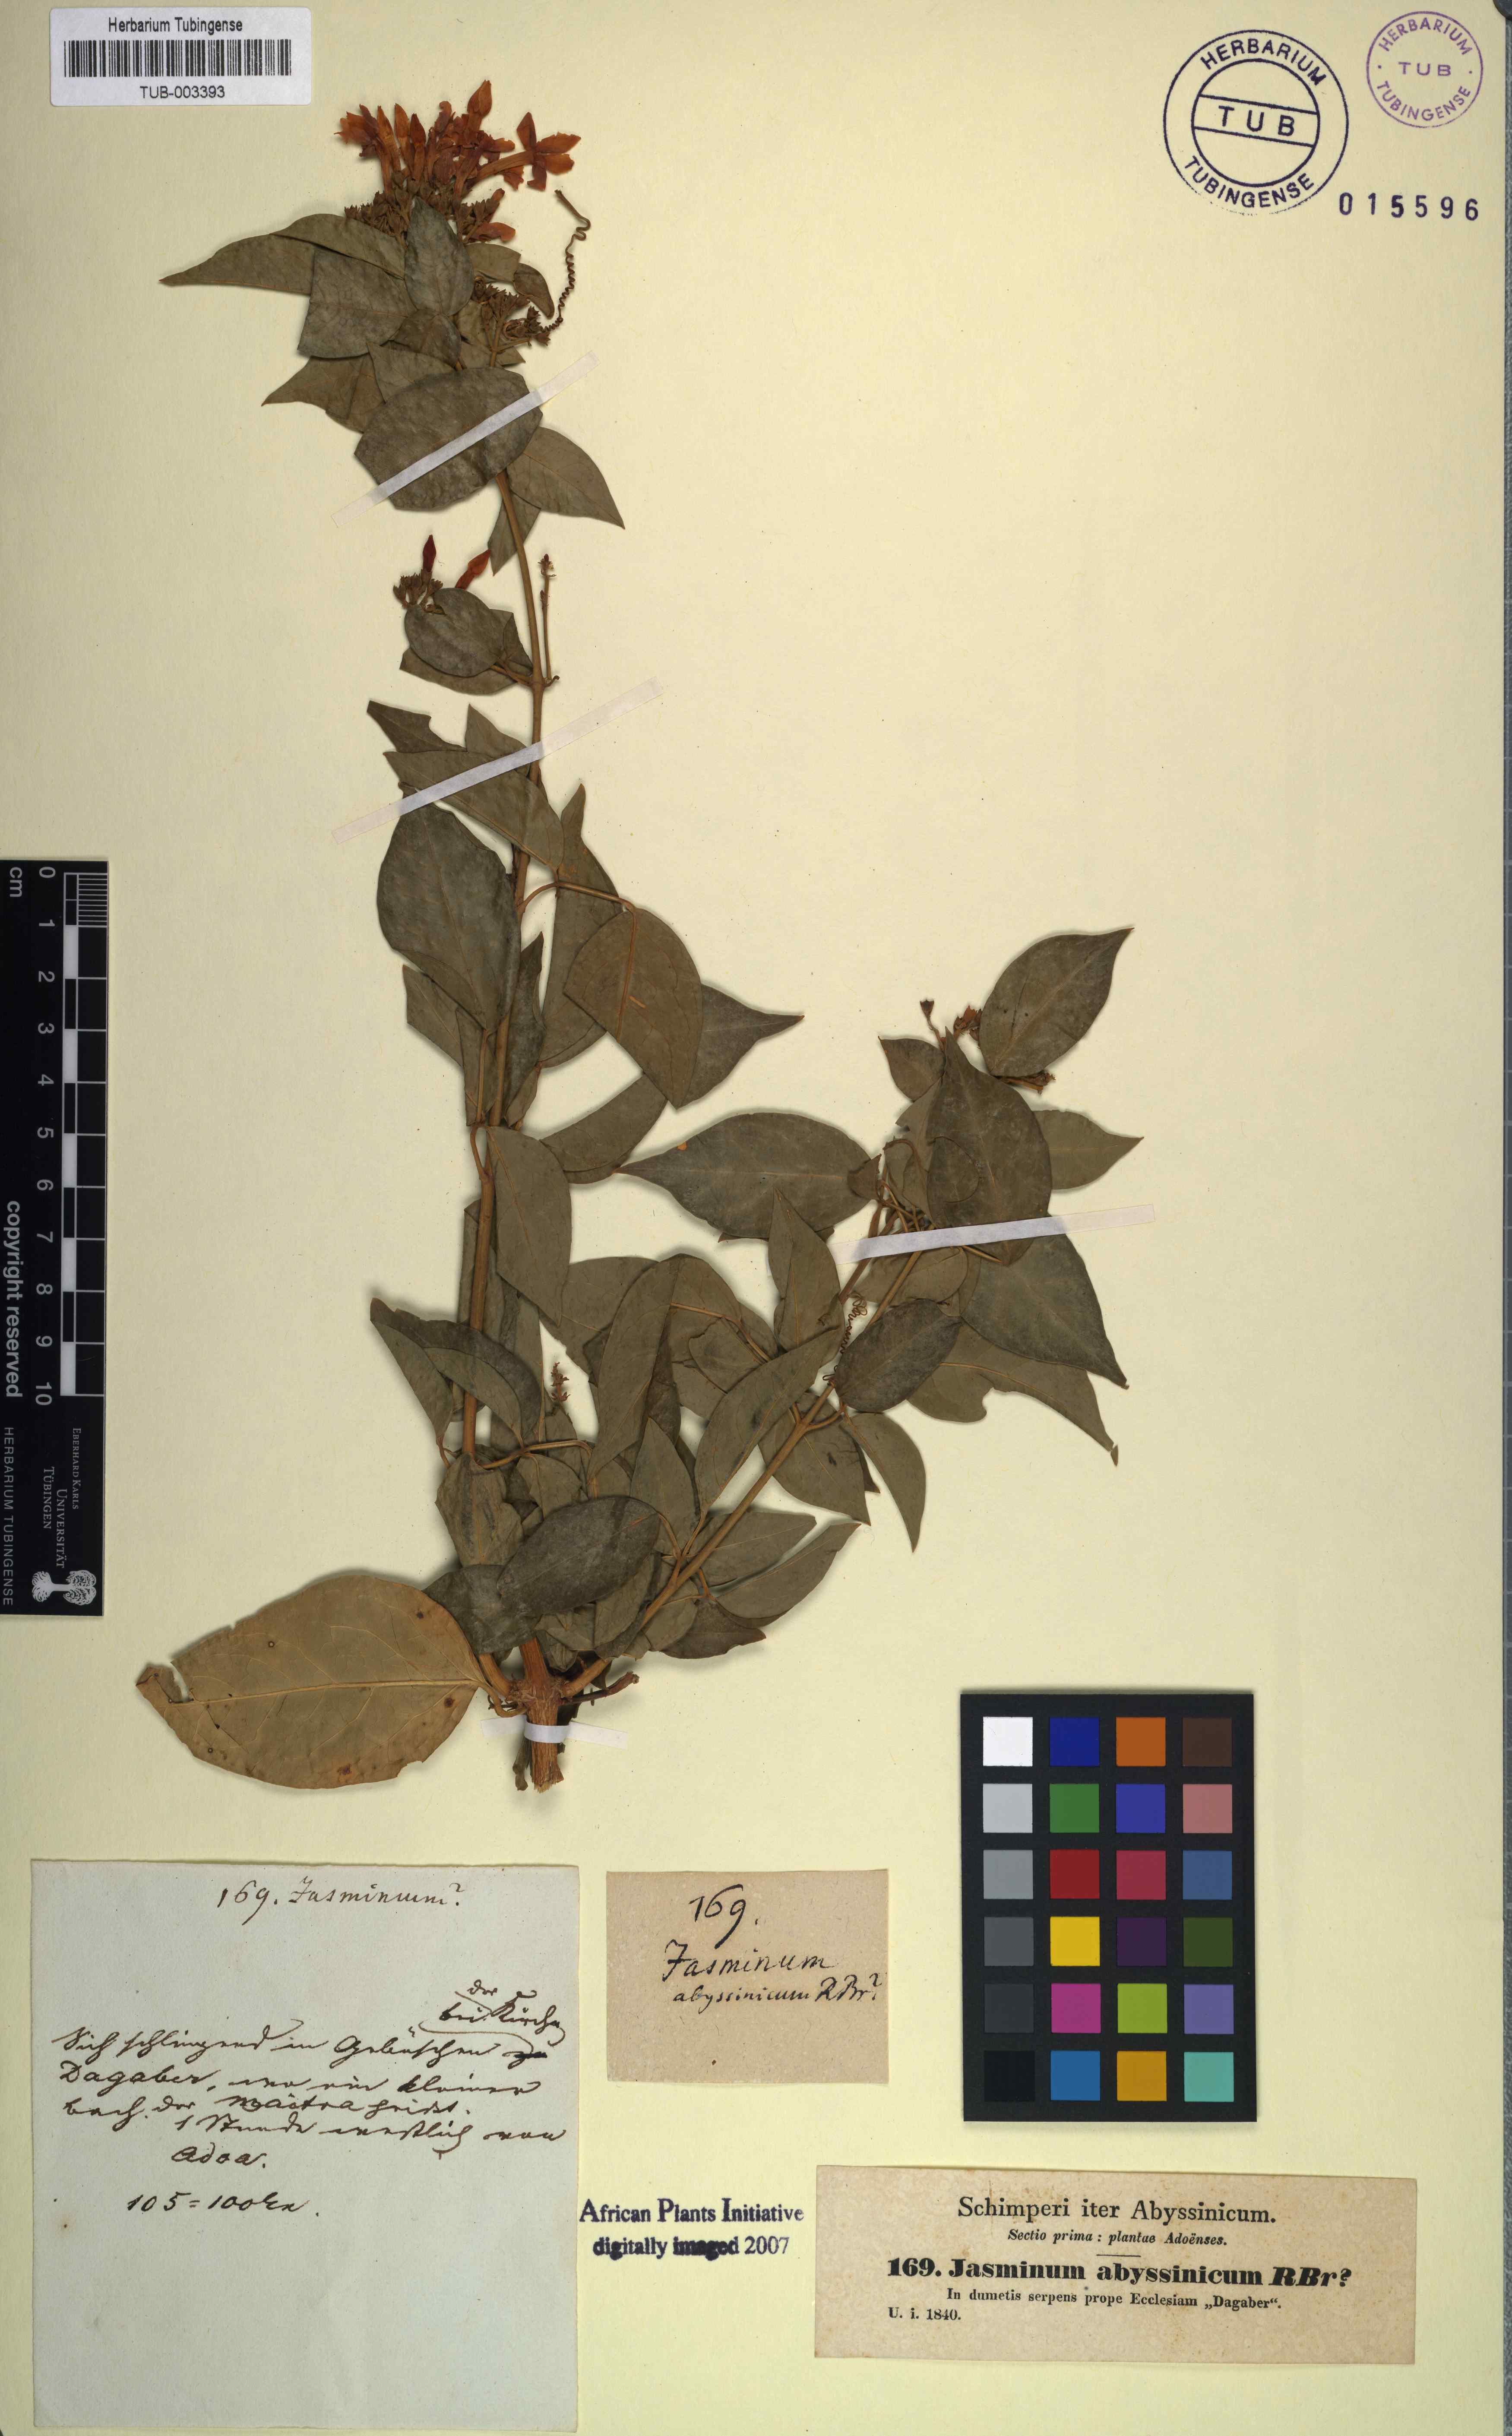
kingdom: Plantae
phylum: Tracheophyta
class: Magnoliopsida
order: Lamiales
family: Oleaceae
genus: Jasminum
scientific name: Jasminum abyssinicum
